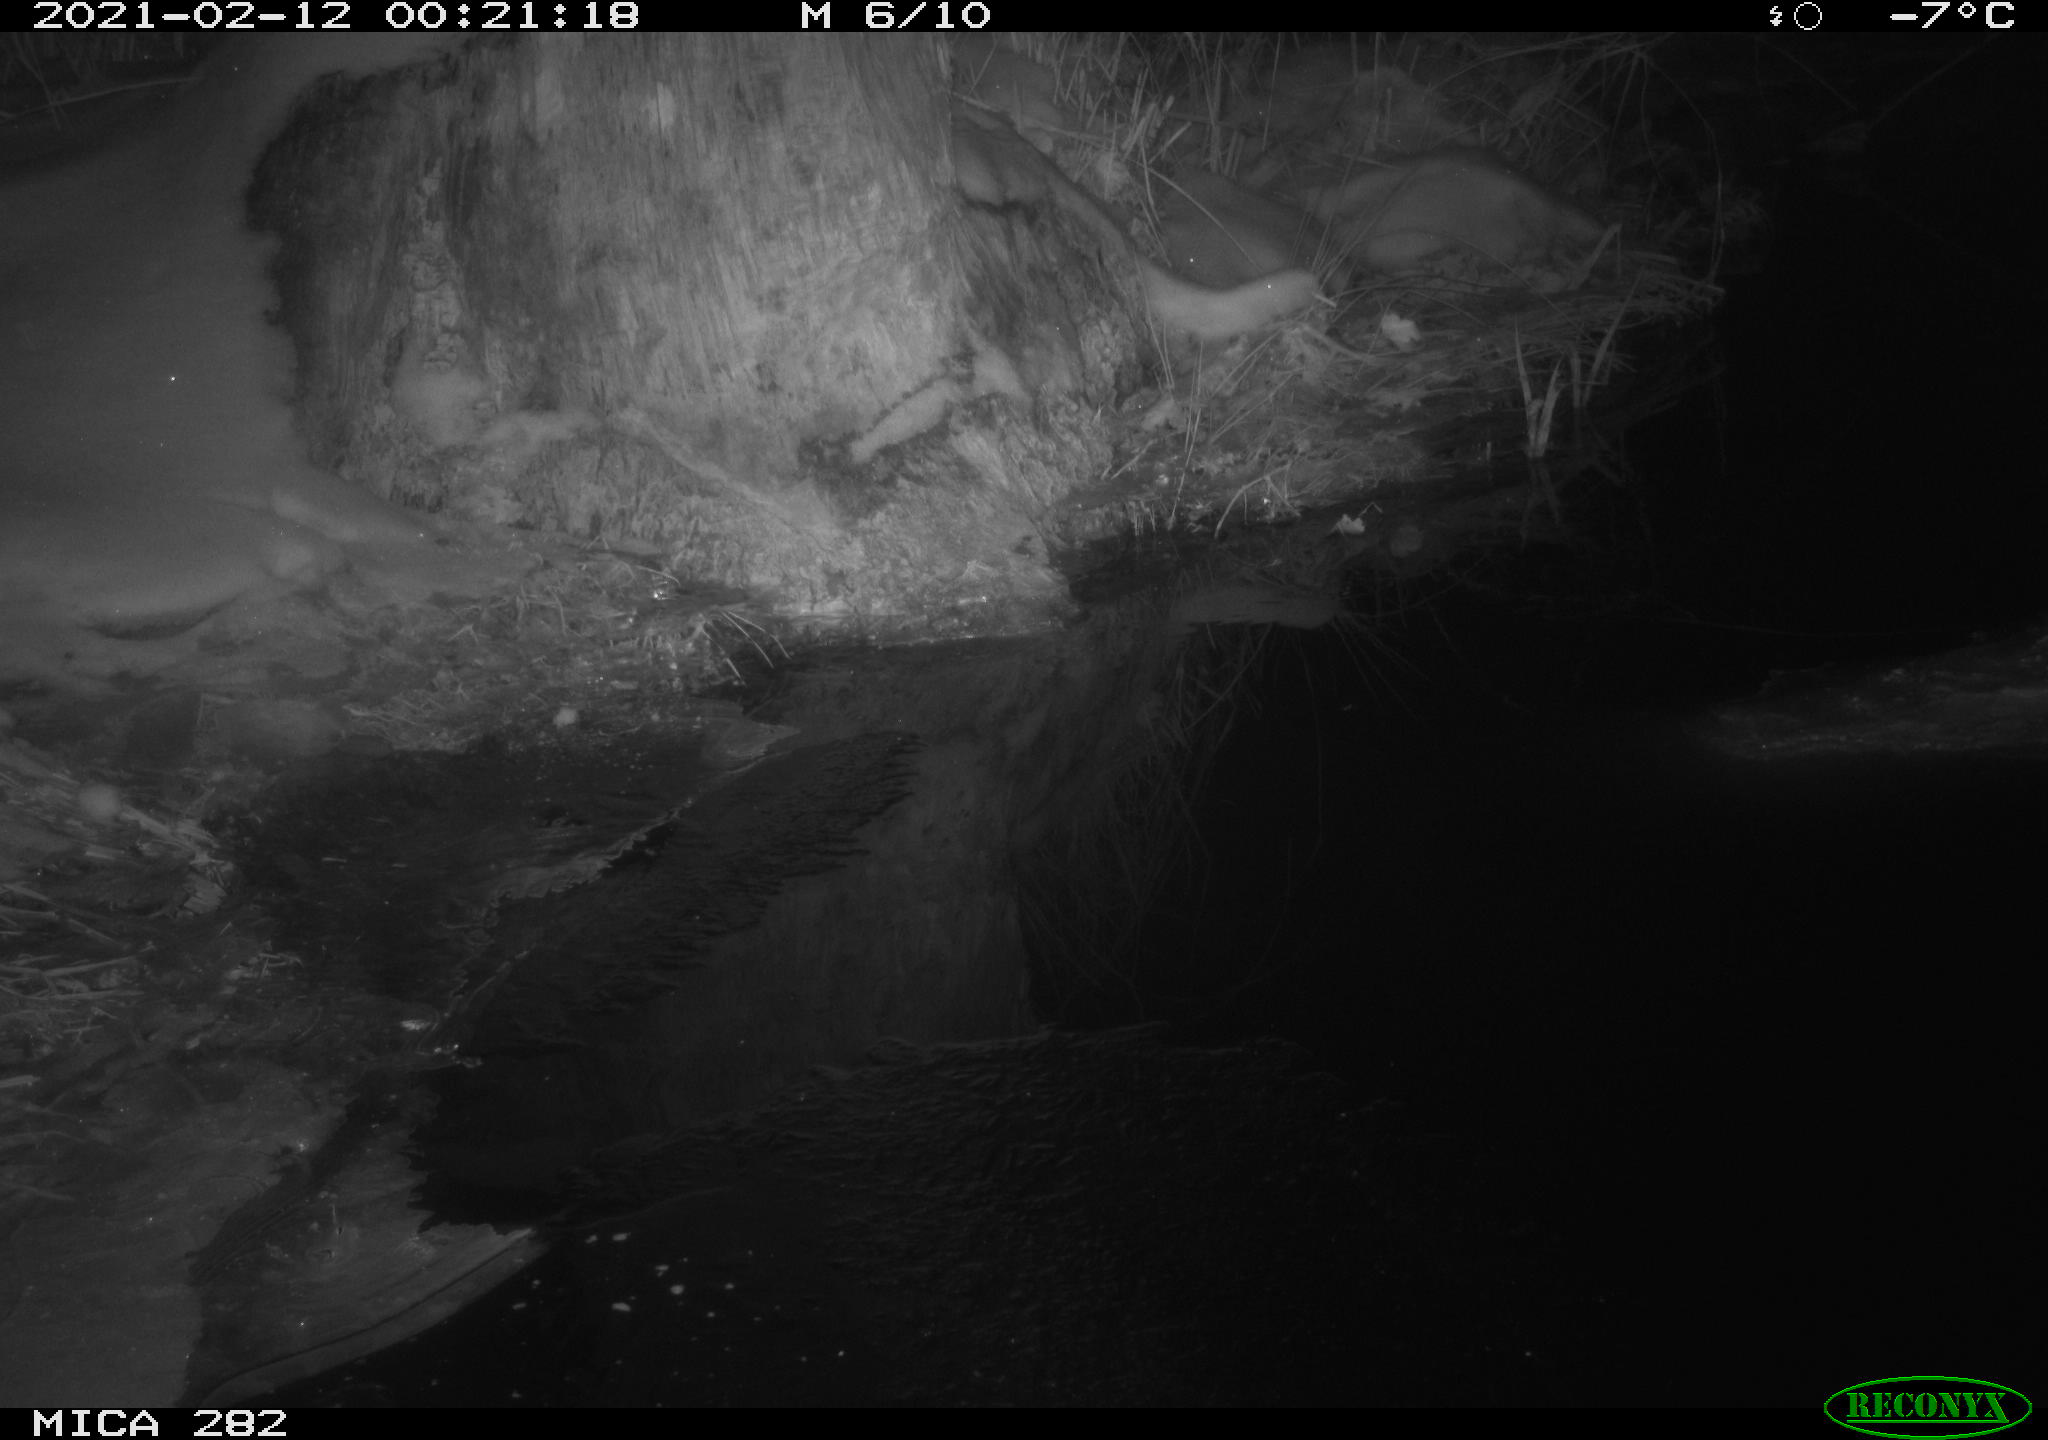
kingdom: Animalia
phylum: Chordata
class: Mammalia
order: Carnivora
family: Canidae
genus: Vulpes
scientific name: Vulpes vulpes
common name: Red fox
